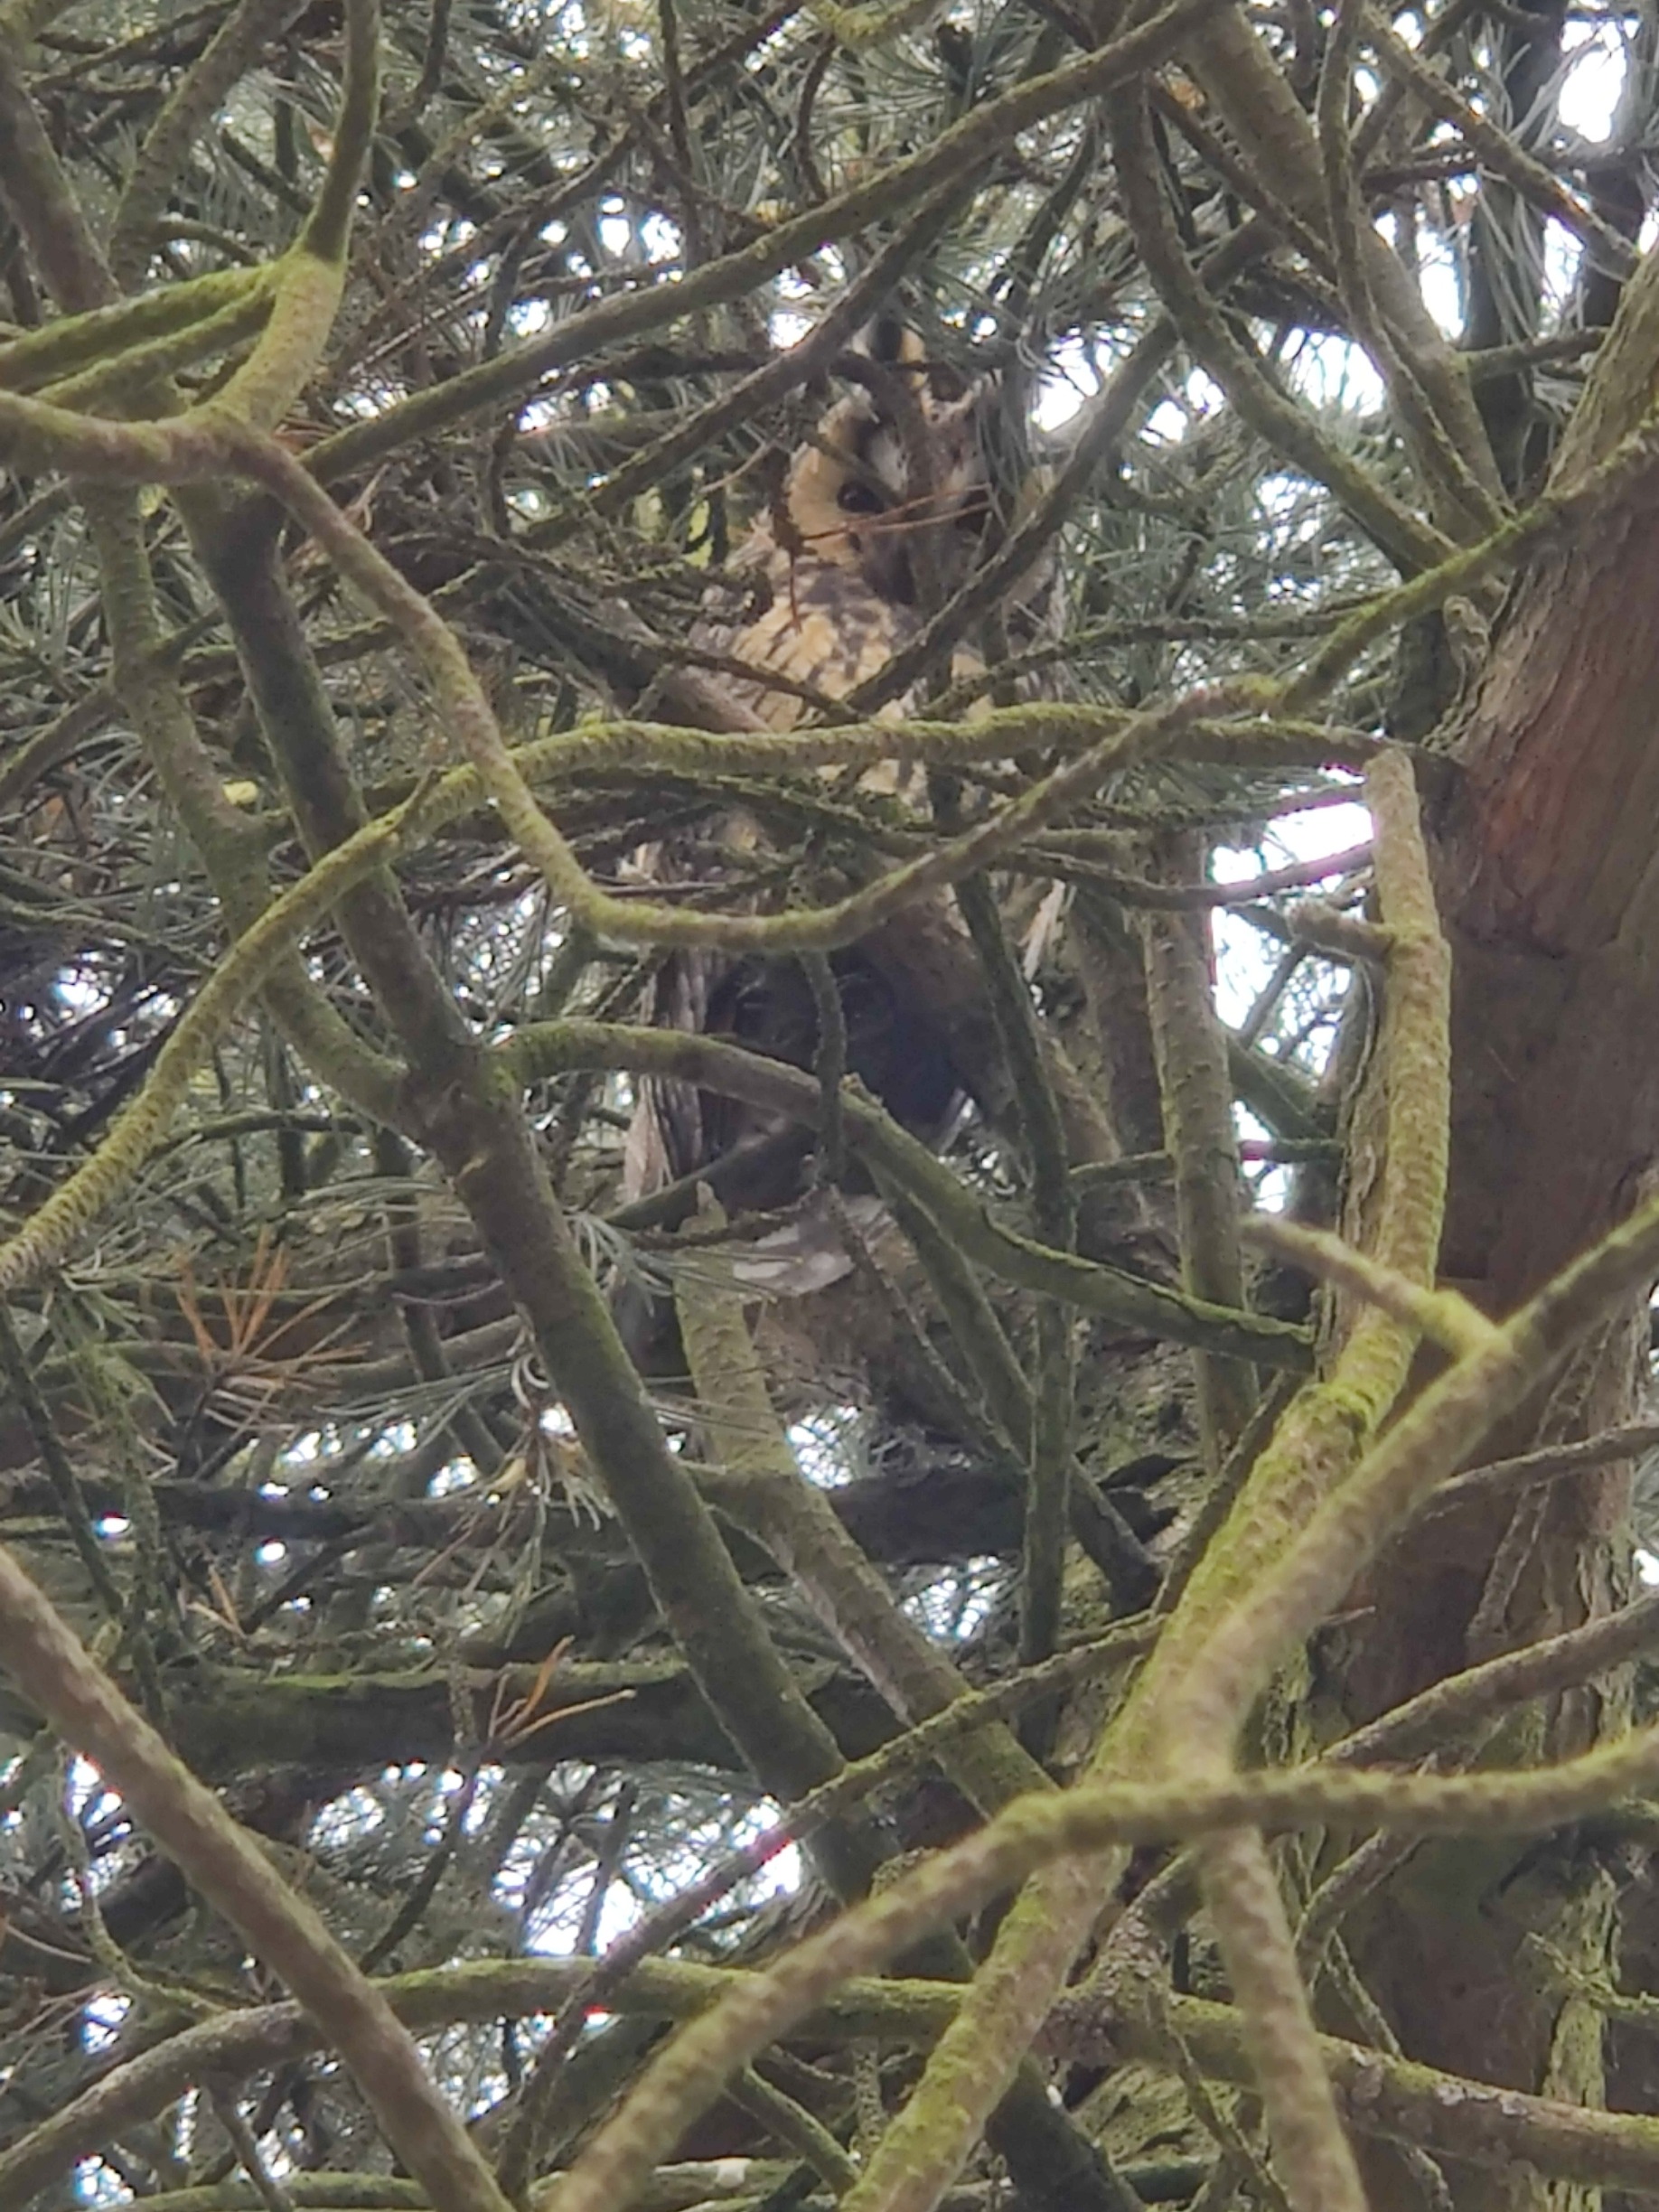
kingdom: Animalia
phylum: Chordata
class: Aves
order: Strigiformes
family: Strigidae
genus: Asio
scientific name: Asio otus
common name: Skovhornugle
